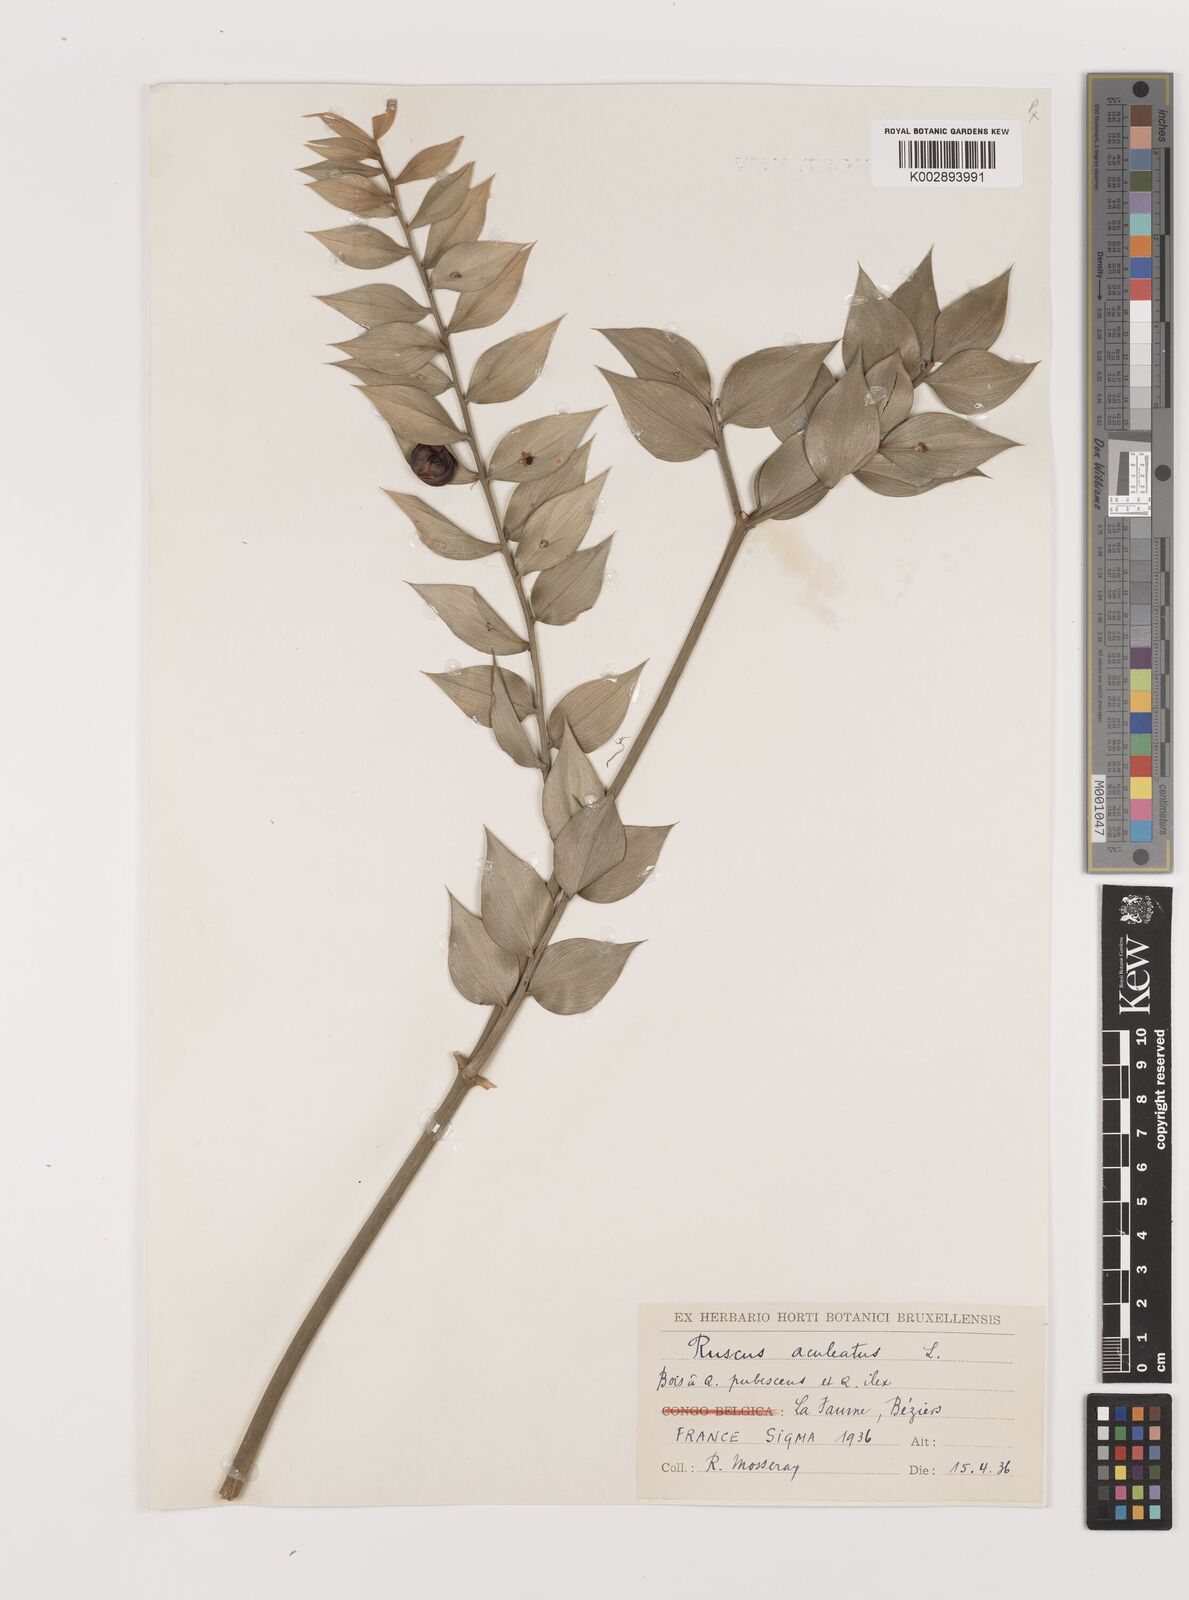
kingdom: Plantae
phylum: Tracheophyta
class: Liliopsida
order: Asparagales
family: Asparagaceae
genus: Ruscus
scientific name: Ruscus hypophyllum
